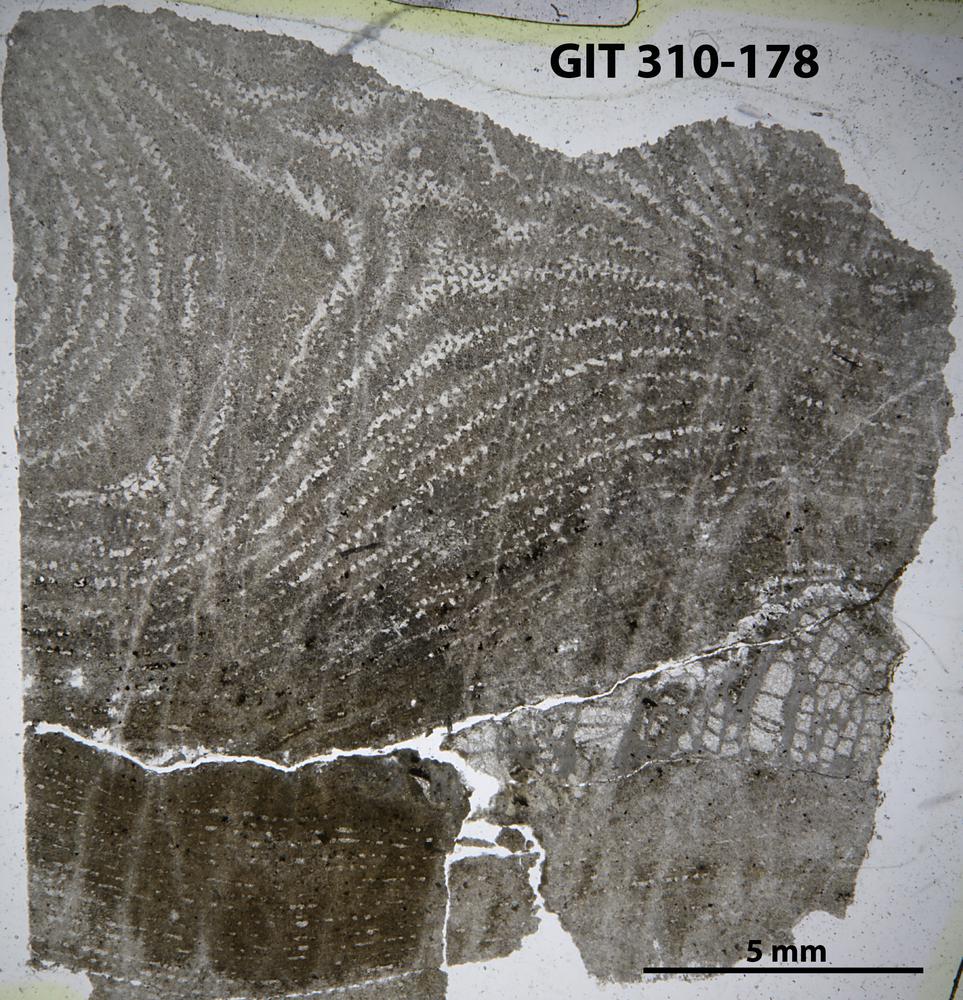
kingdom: Animalia
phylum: Porifera
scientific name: Porifera
